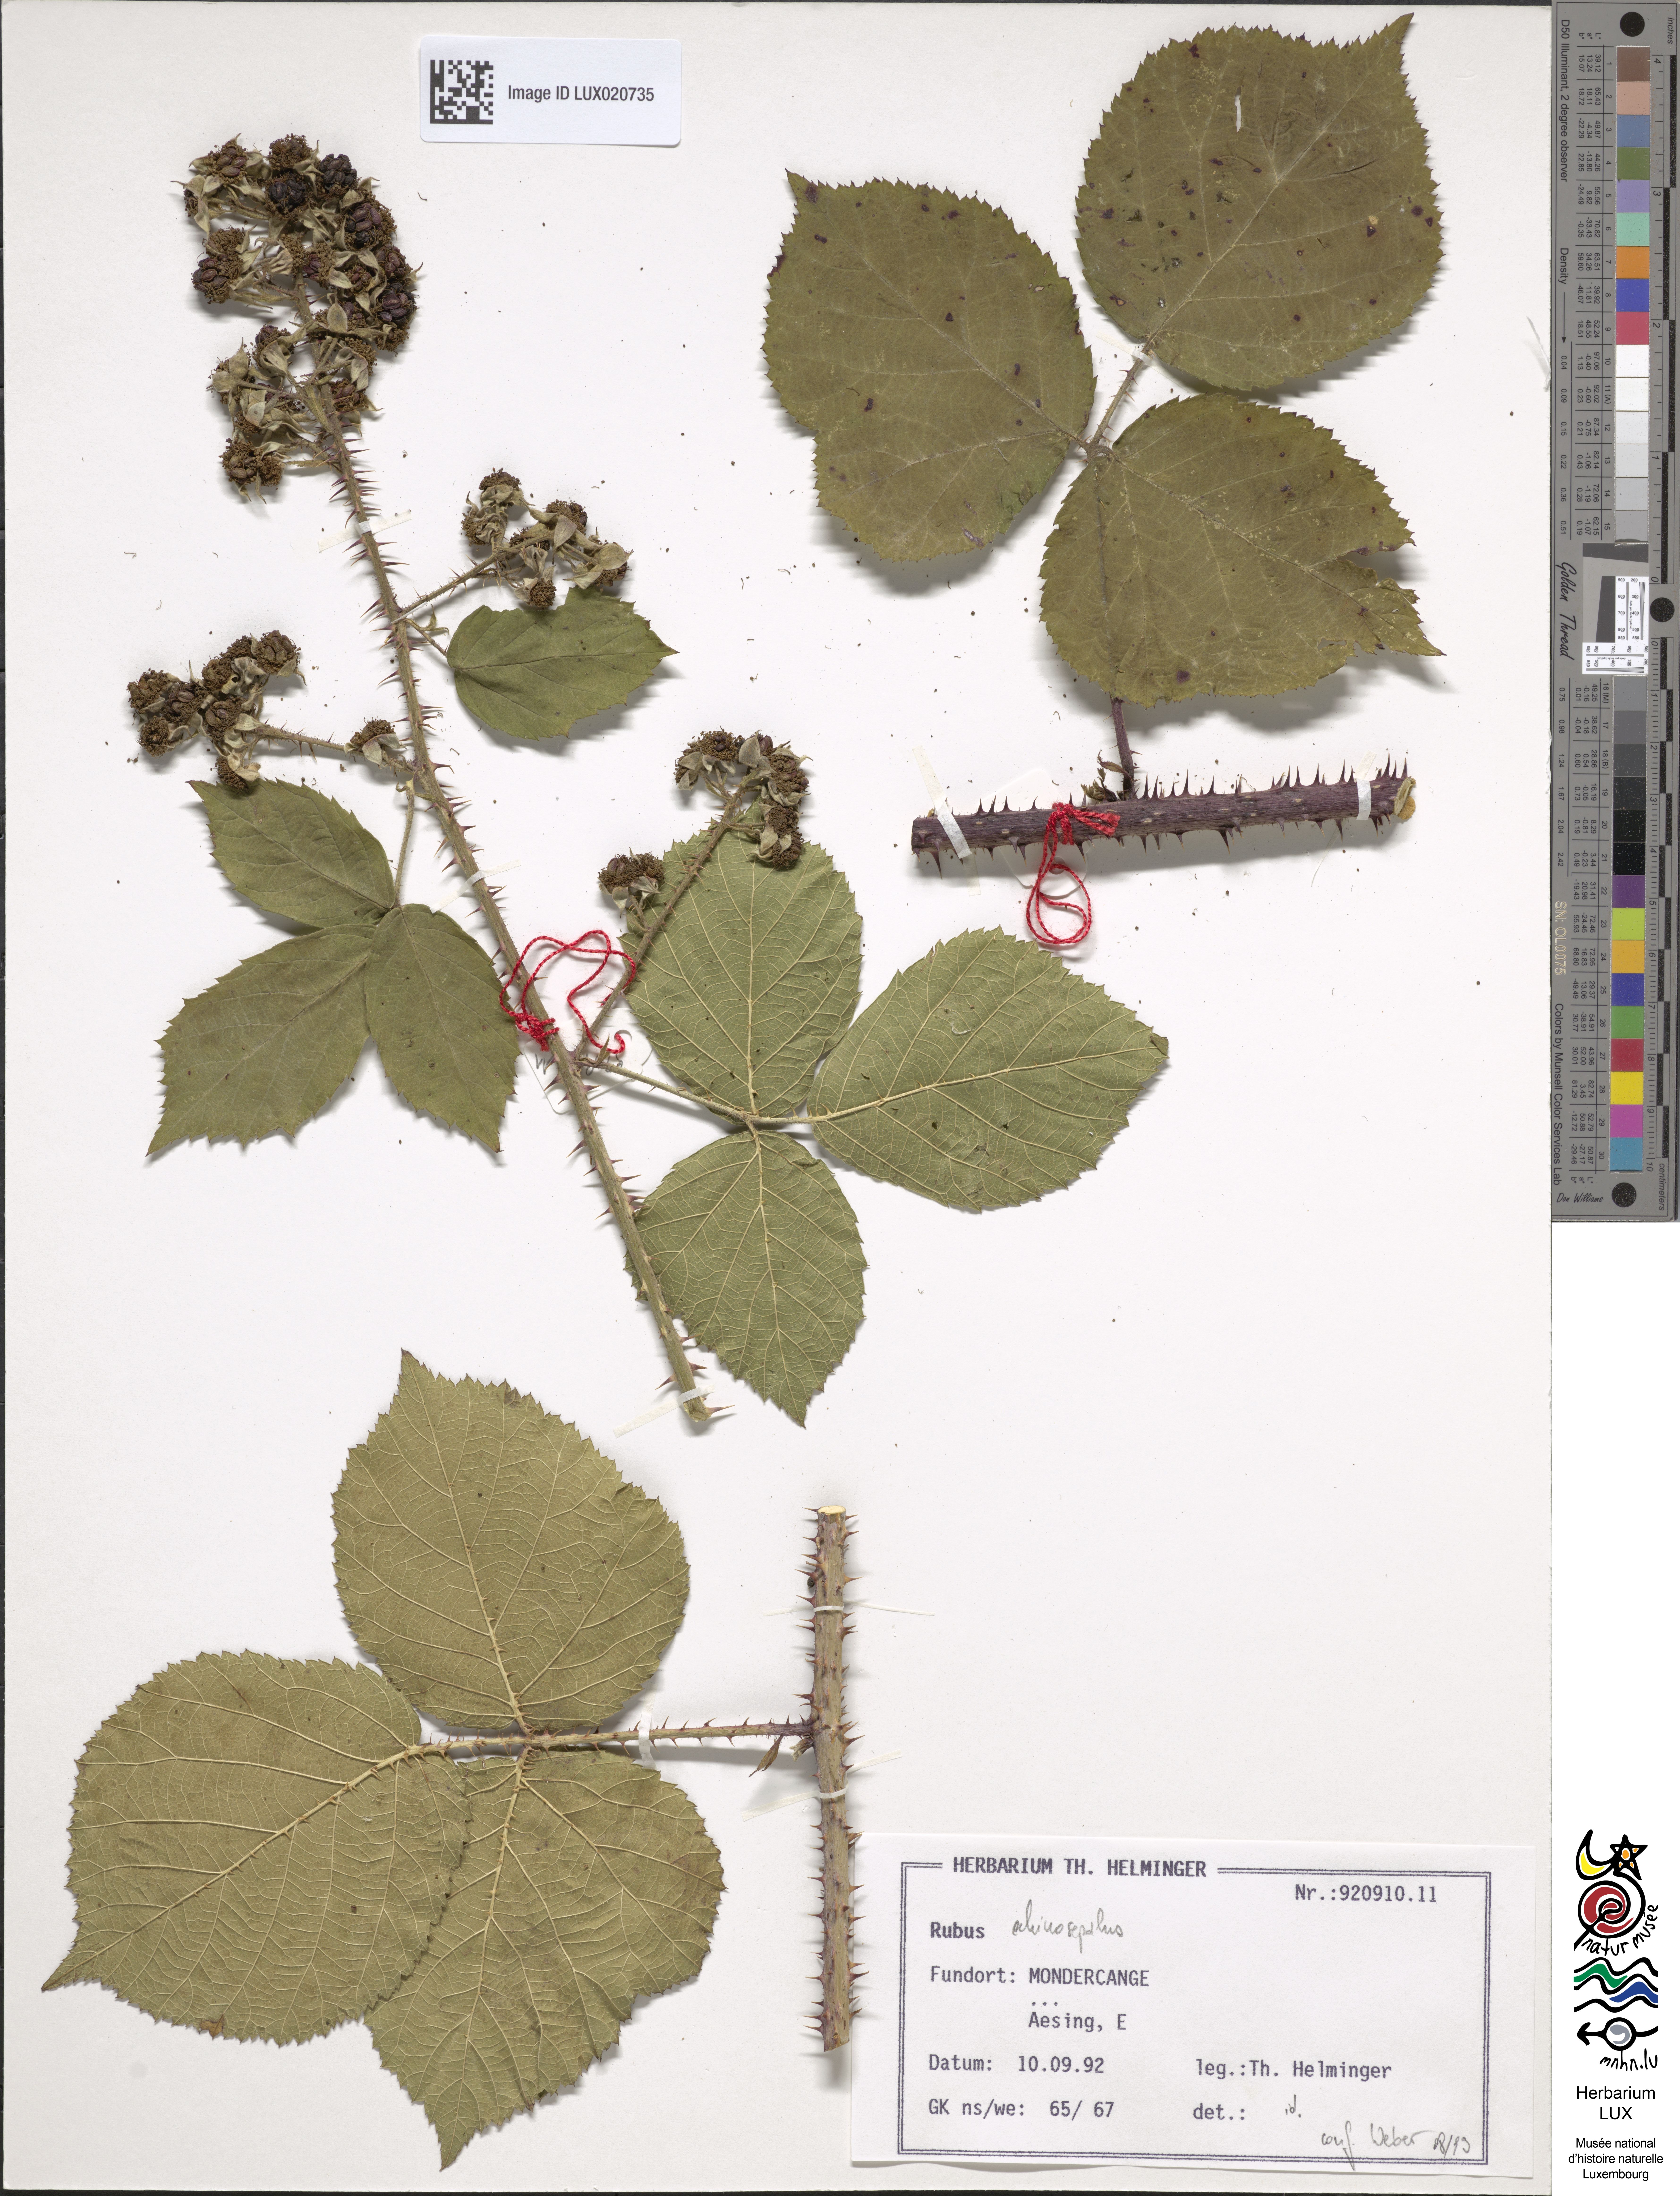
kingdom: Plantae
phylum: Tracheophyta
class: Magnoliopsida
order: Rosales
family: Rosaceae
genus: Rubus
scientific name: Rubus echinosepalus
